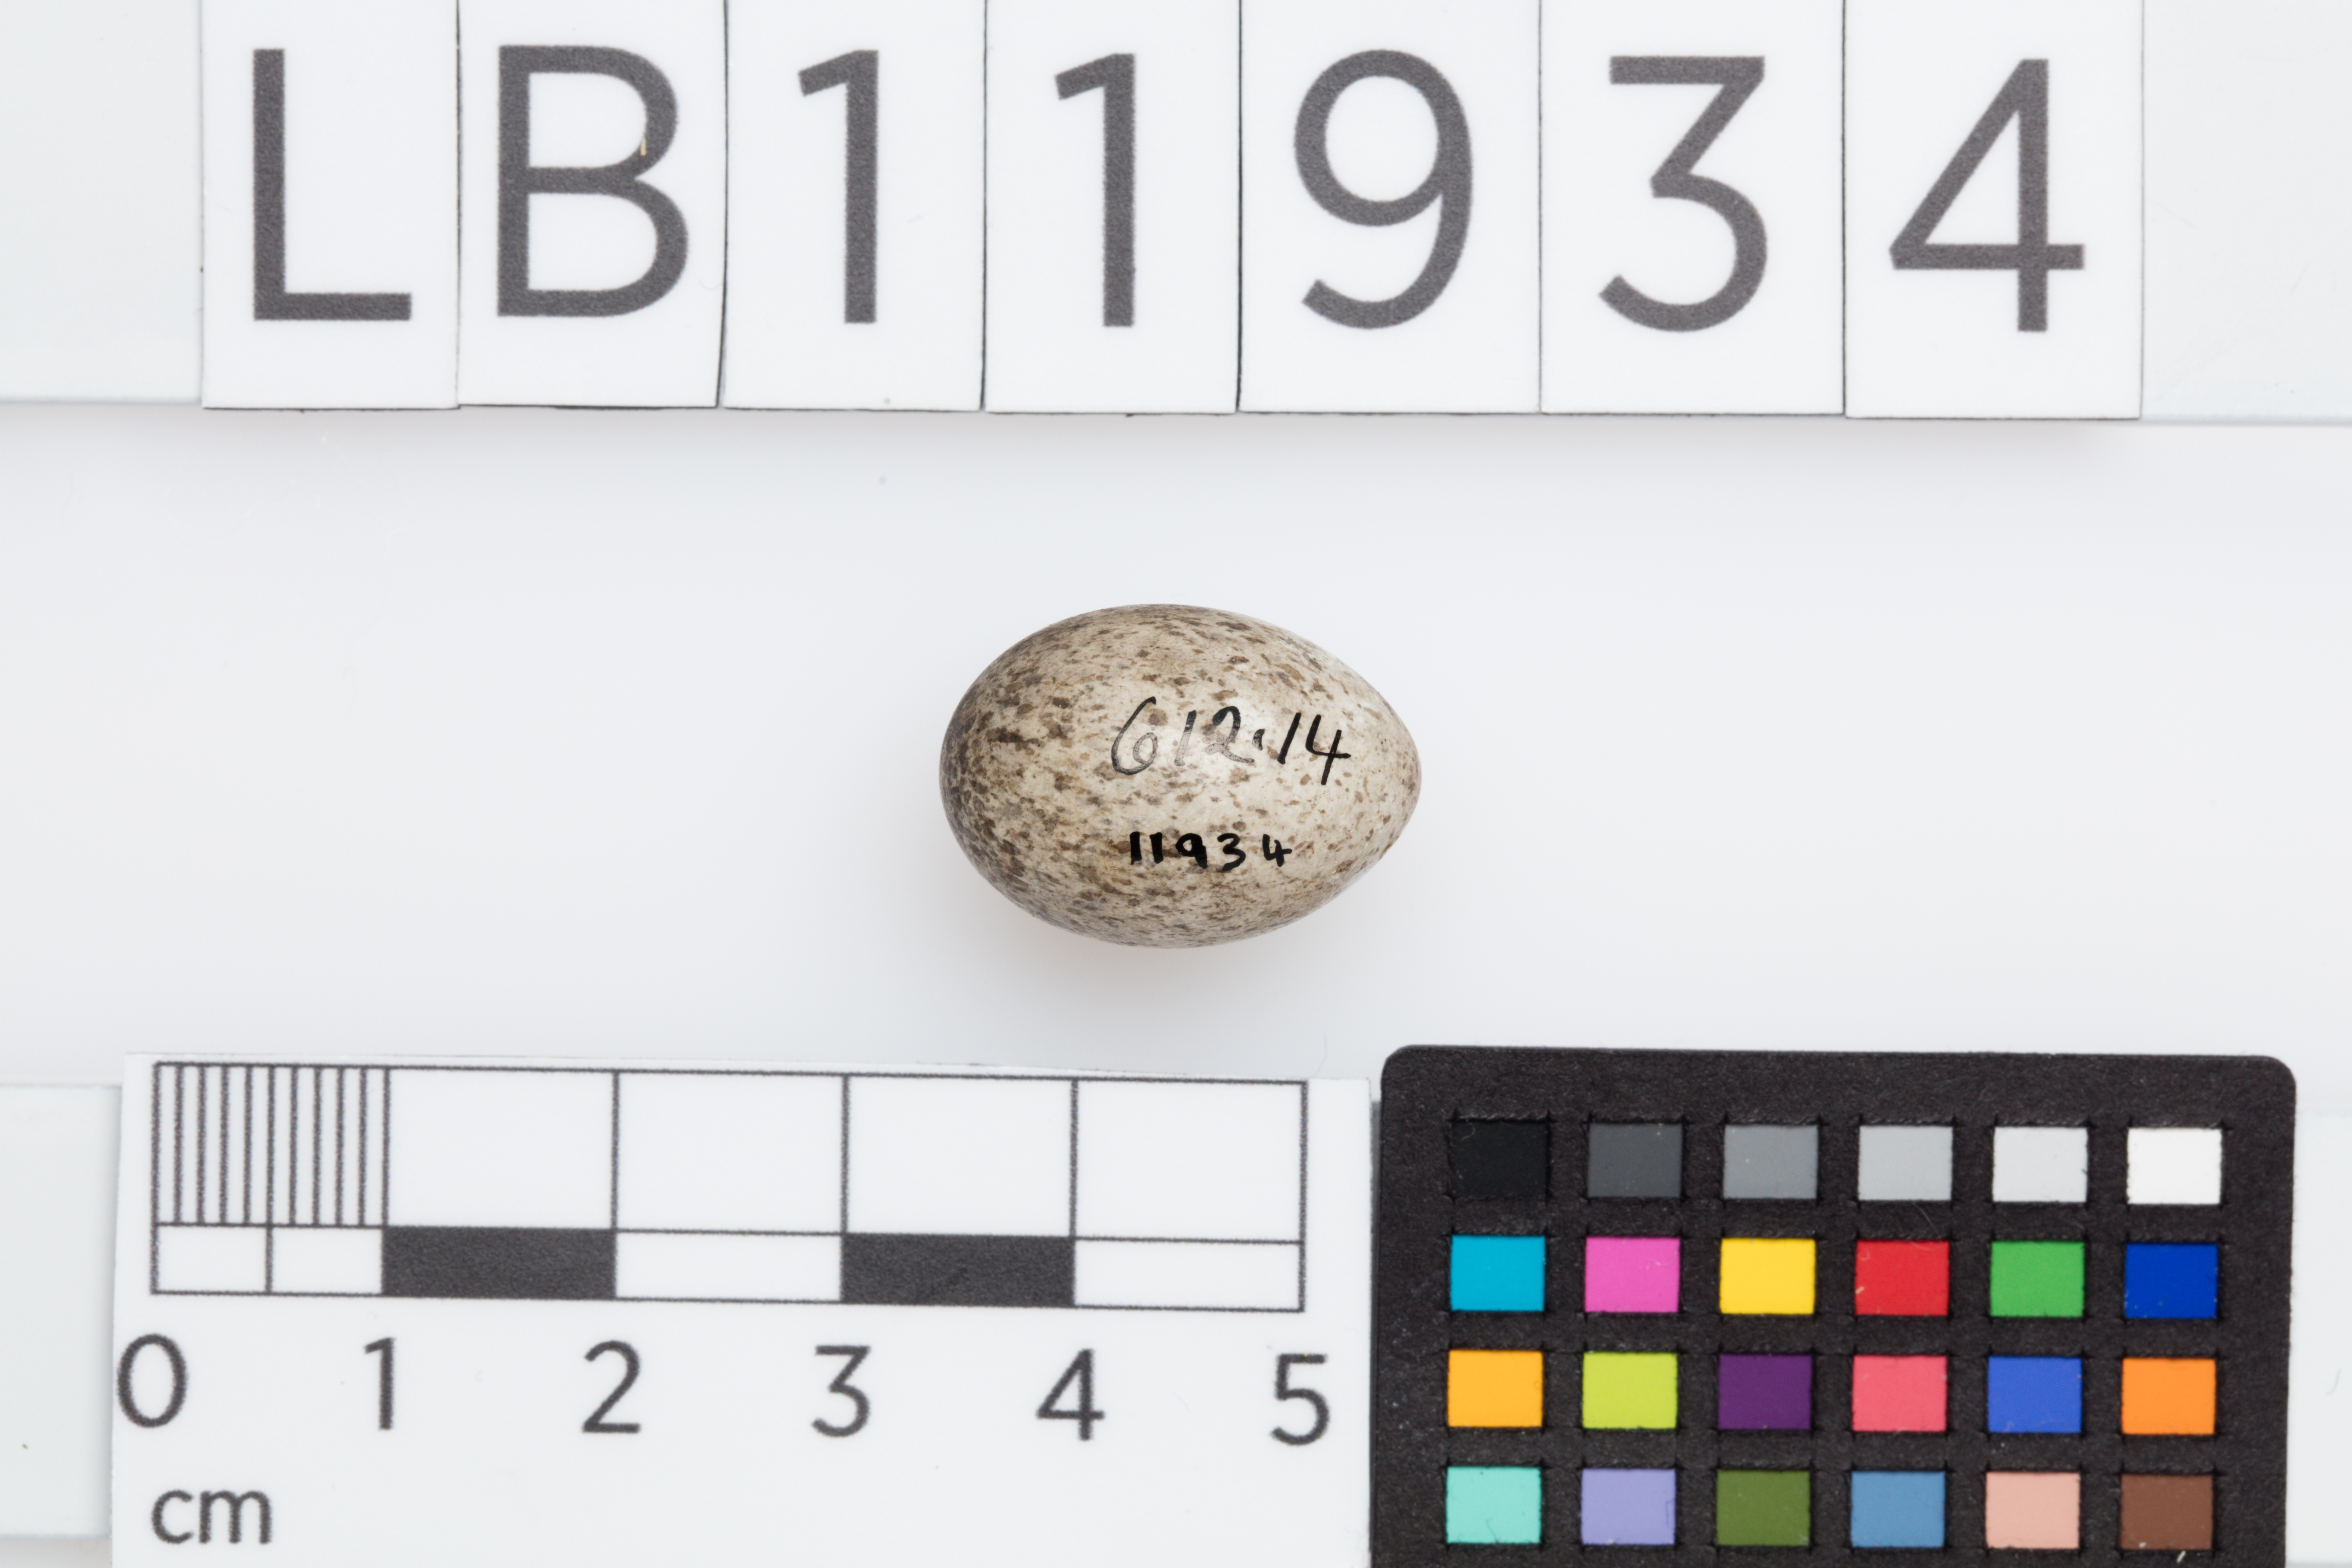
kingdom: Animalia
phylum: Chordata
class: Aves
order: Passeriformes
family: Motacillidae
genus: Motacilla
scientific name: Motacilla alba
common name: White wagtail
